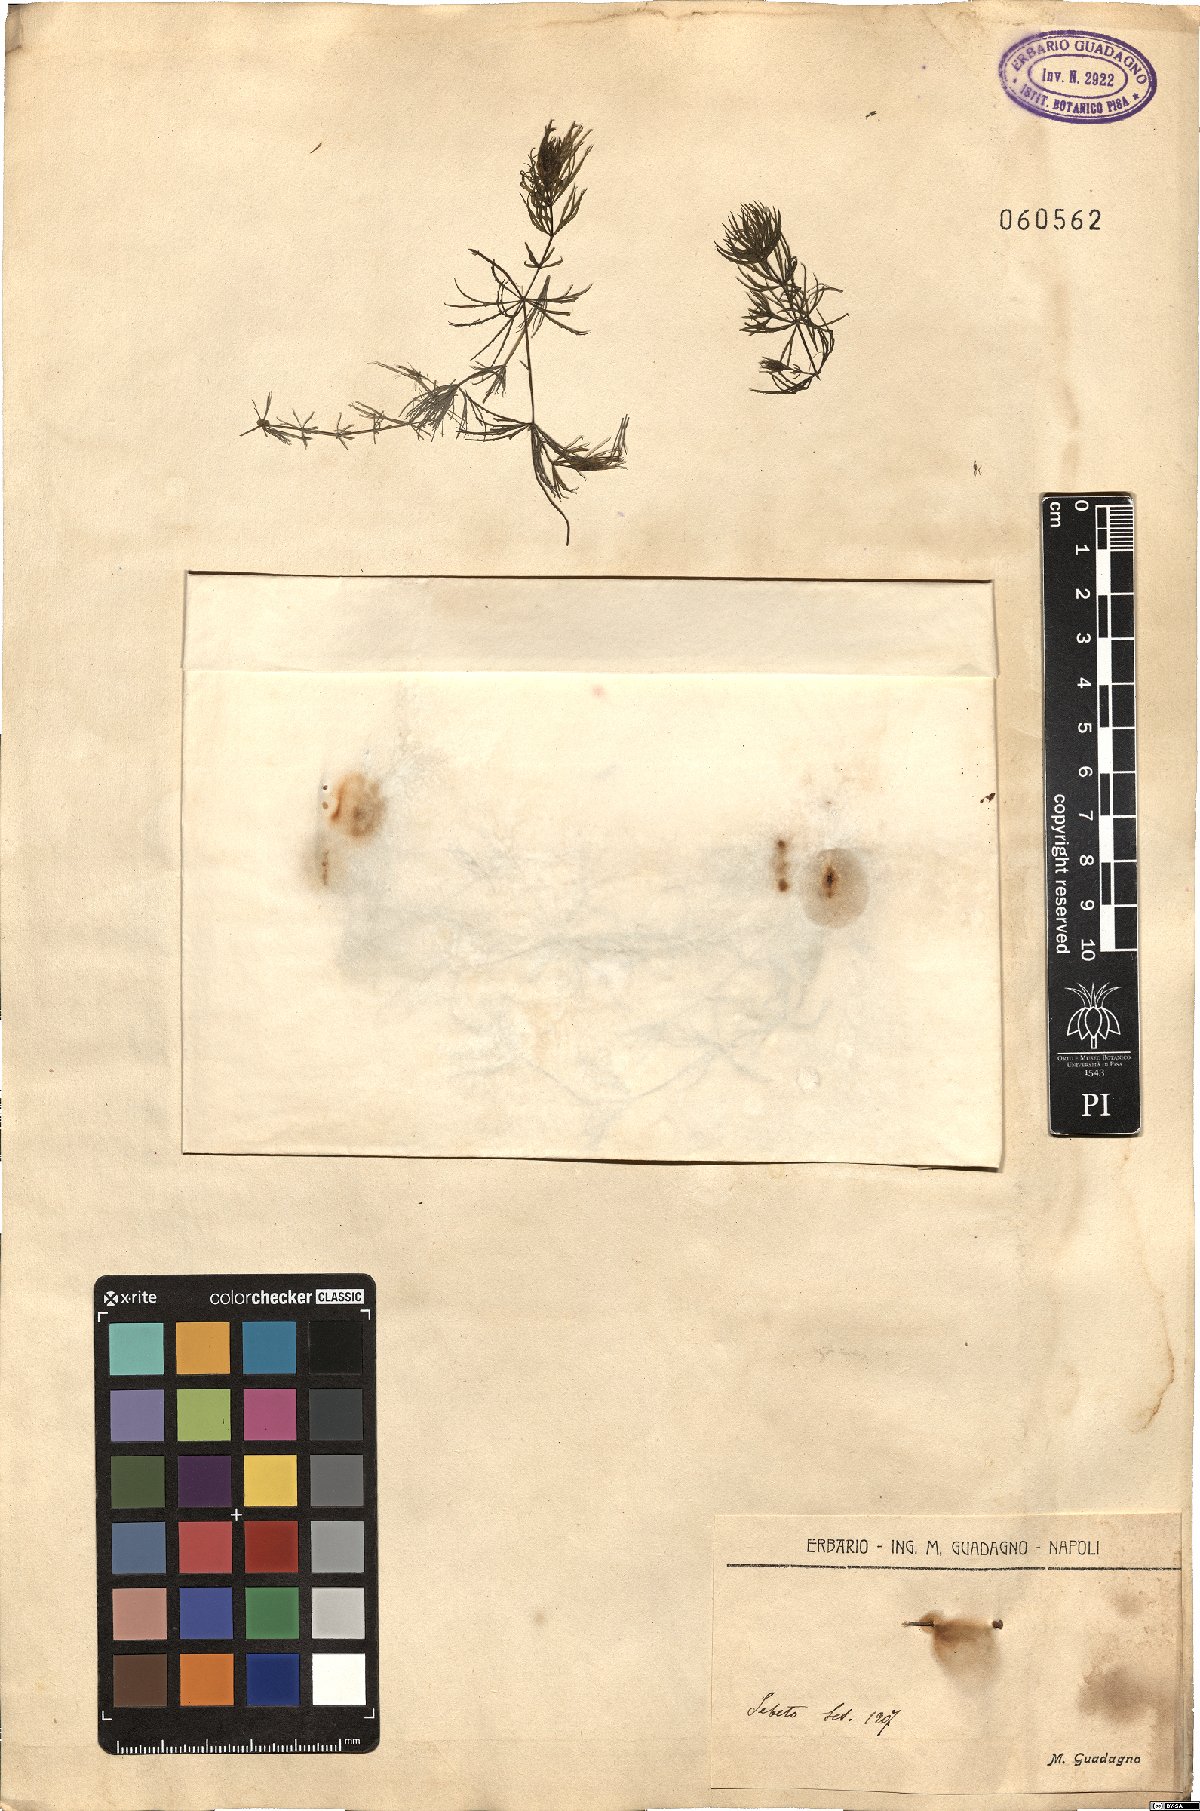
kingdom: Plantae
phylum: Tracheophyta
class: Liliopsida
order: Alismatales
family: Hydrocharitaceae
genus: Najas
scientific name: Najas
